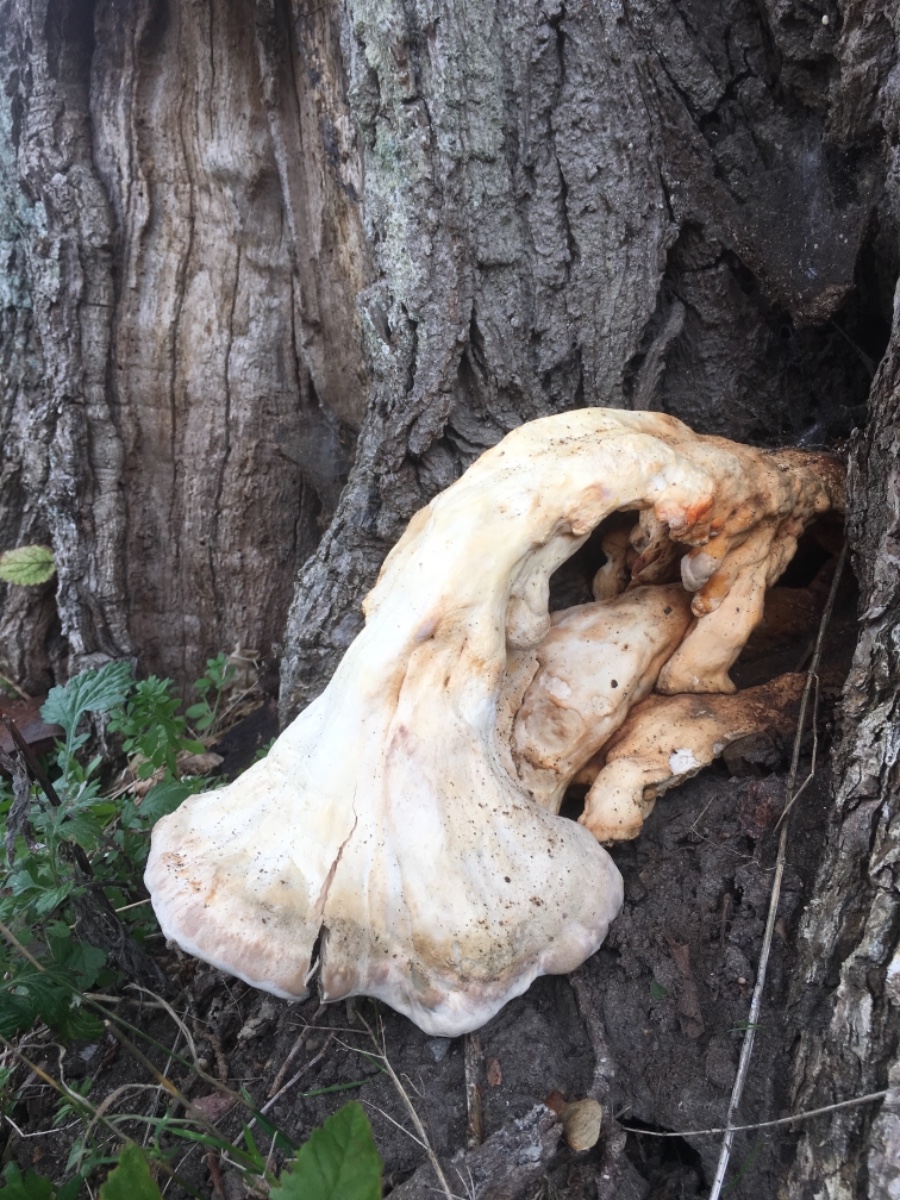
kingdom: Fungi
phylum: Basidiomycota
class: Agaricomycetes
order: Polyporales
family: Laetiporaceae
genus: Laetiporus
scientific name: Laetiporus sulphureus
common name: svovlporesvamp
